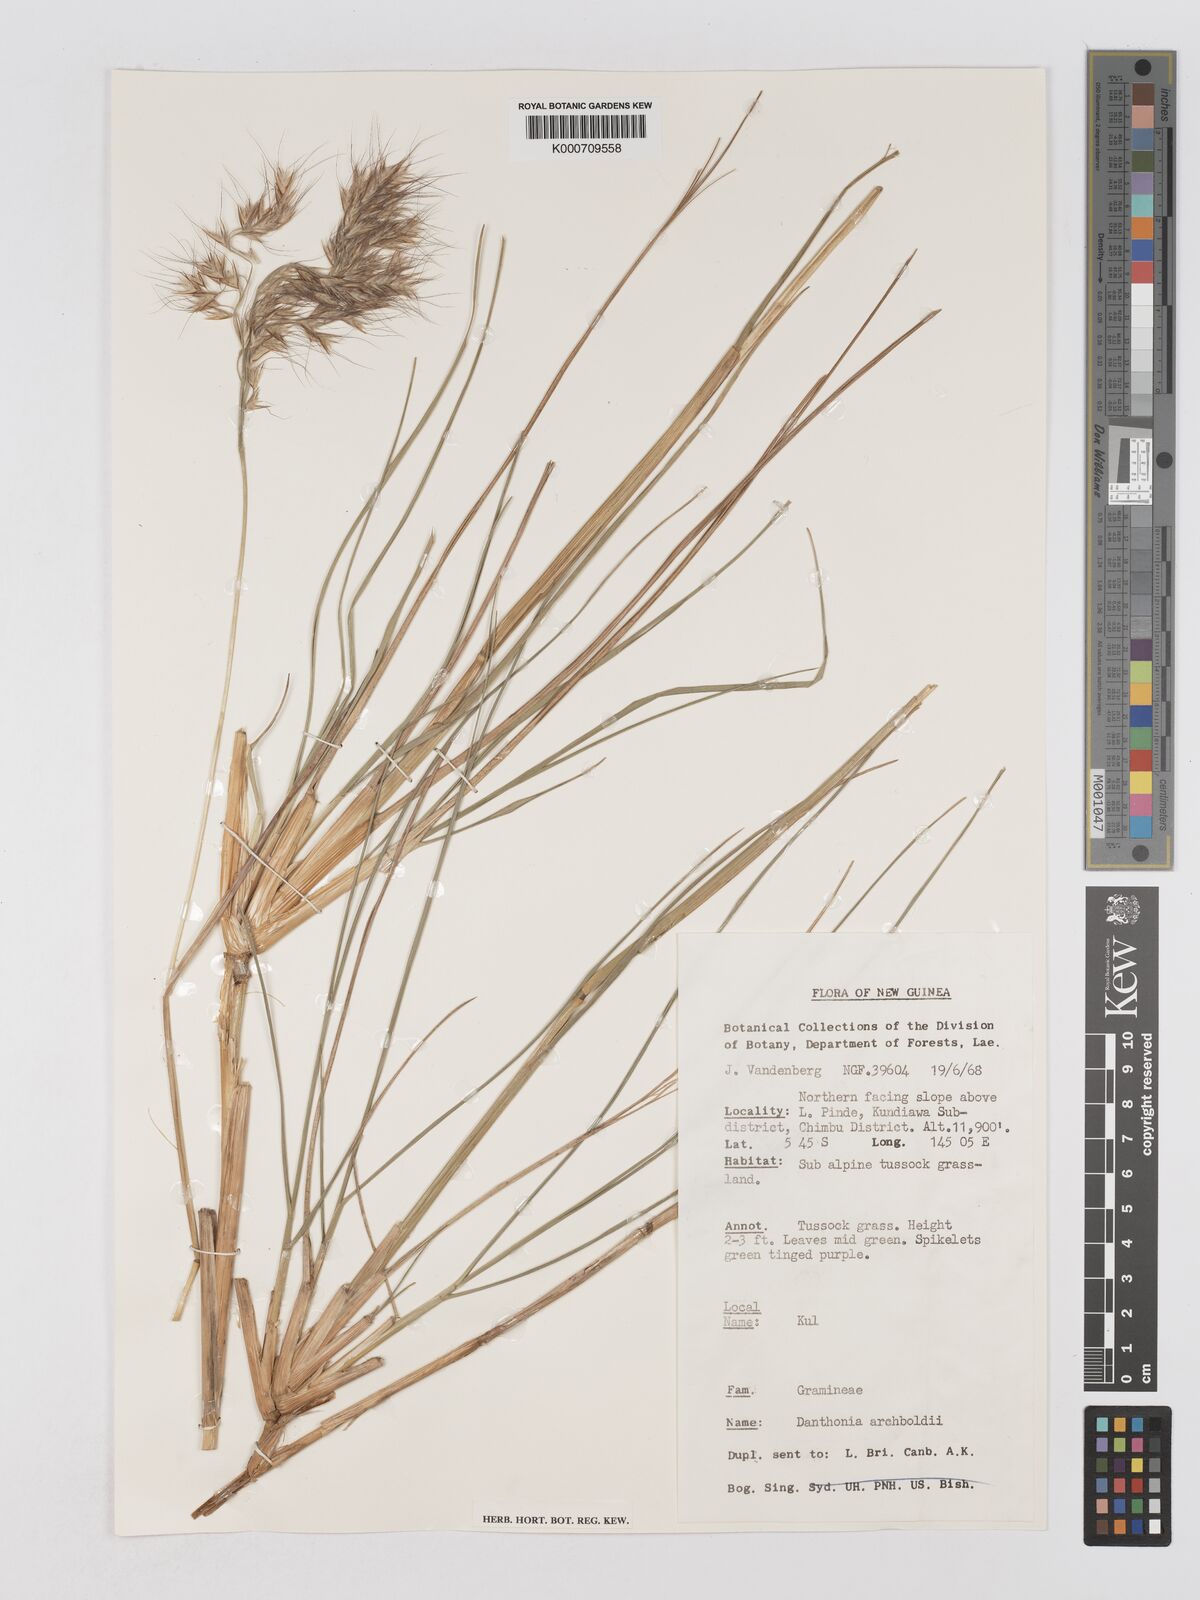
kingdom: Plantae
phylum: Tracheophyta
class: Liliopsida
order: Poales
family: Poaceae
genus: Chimaerochloa
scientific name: Chimaerochloa archboldii
